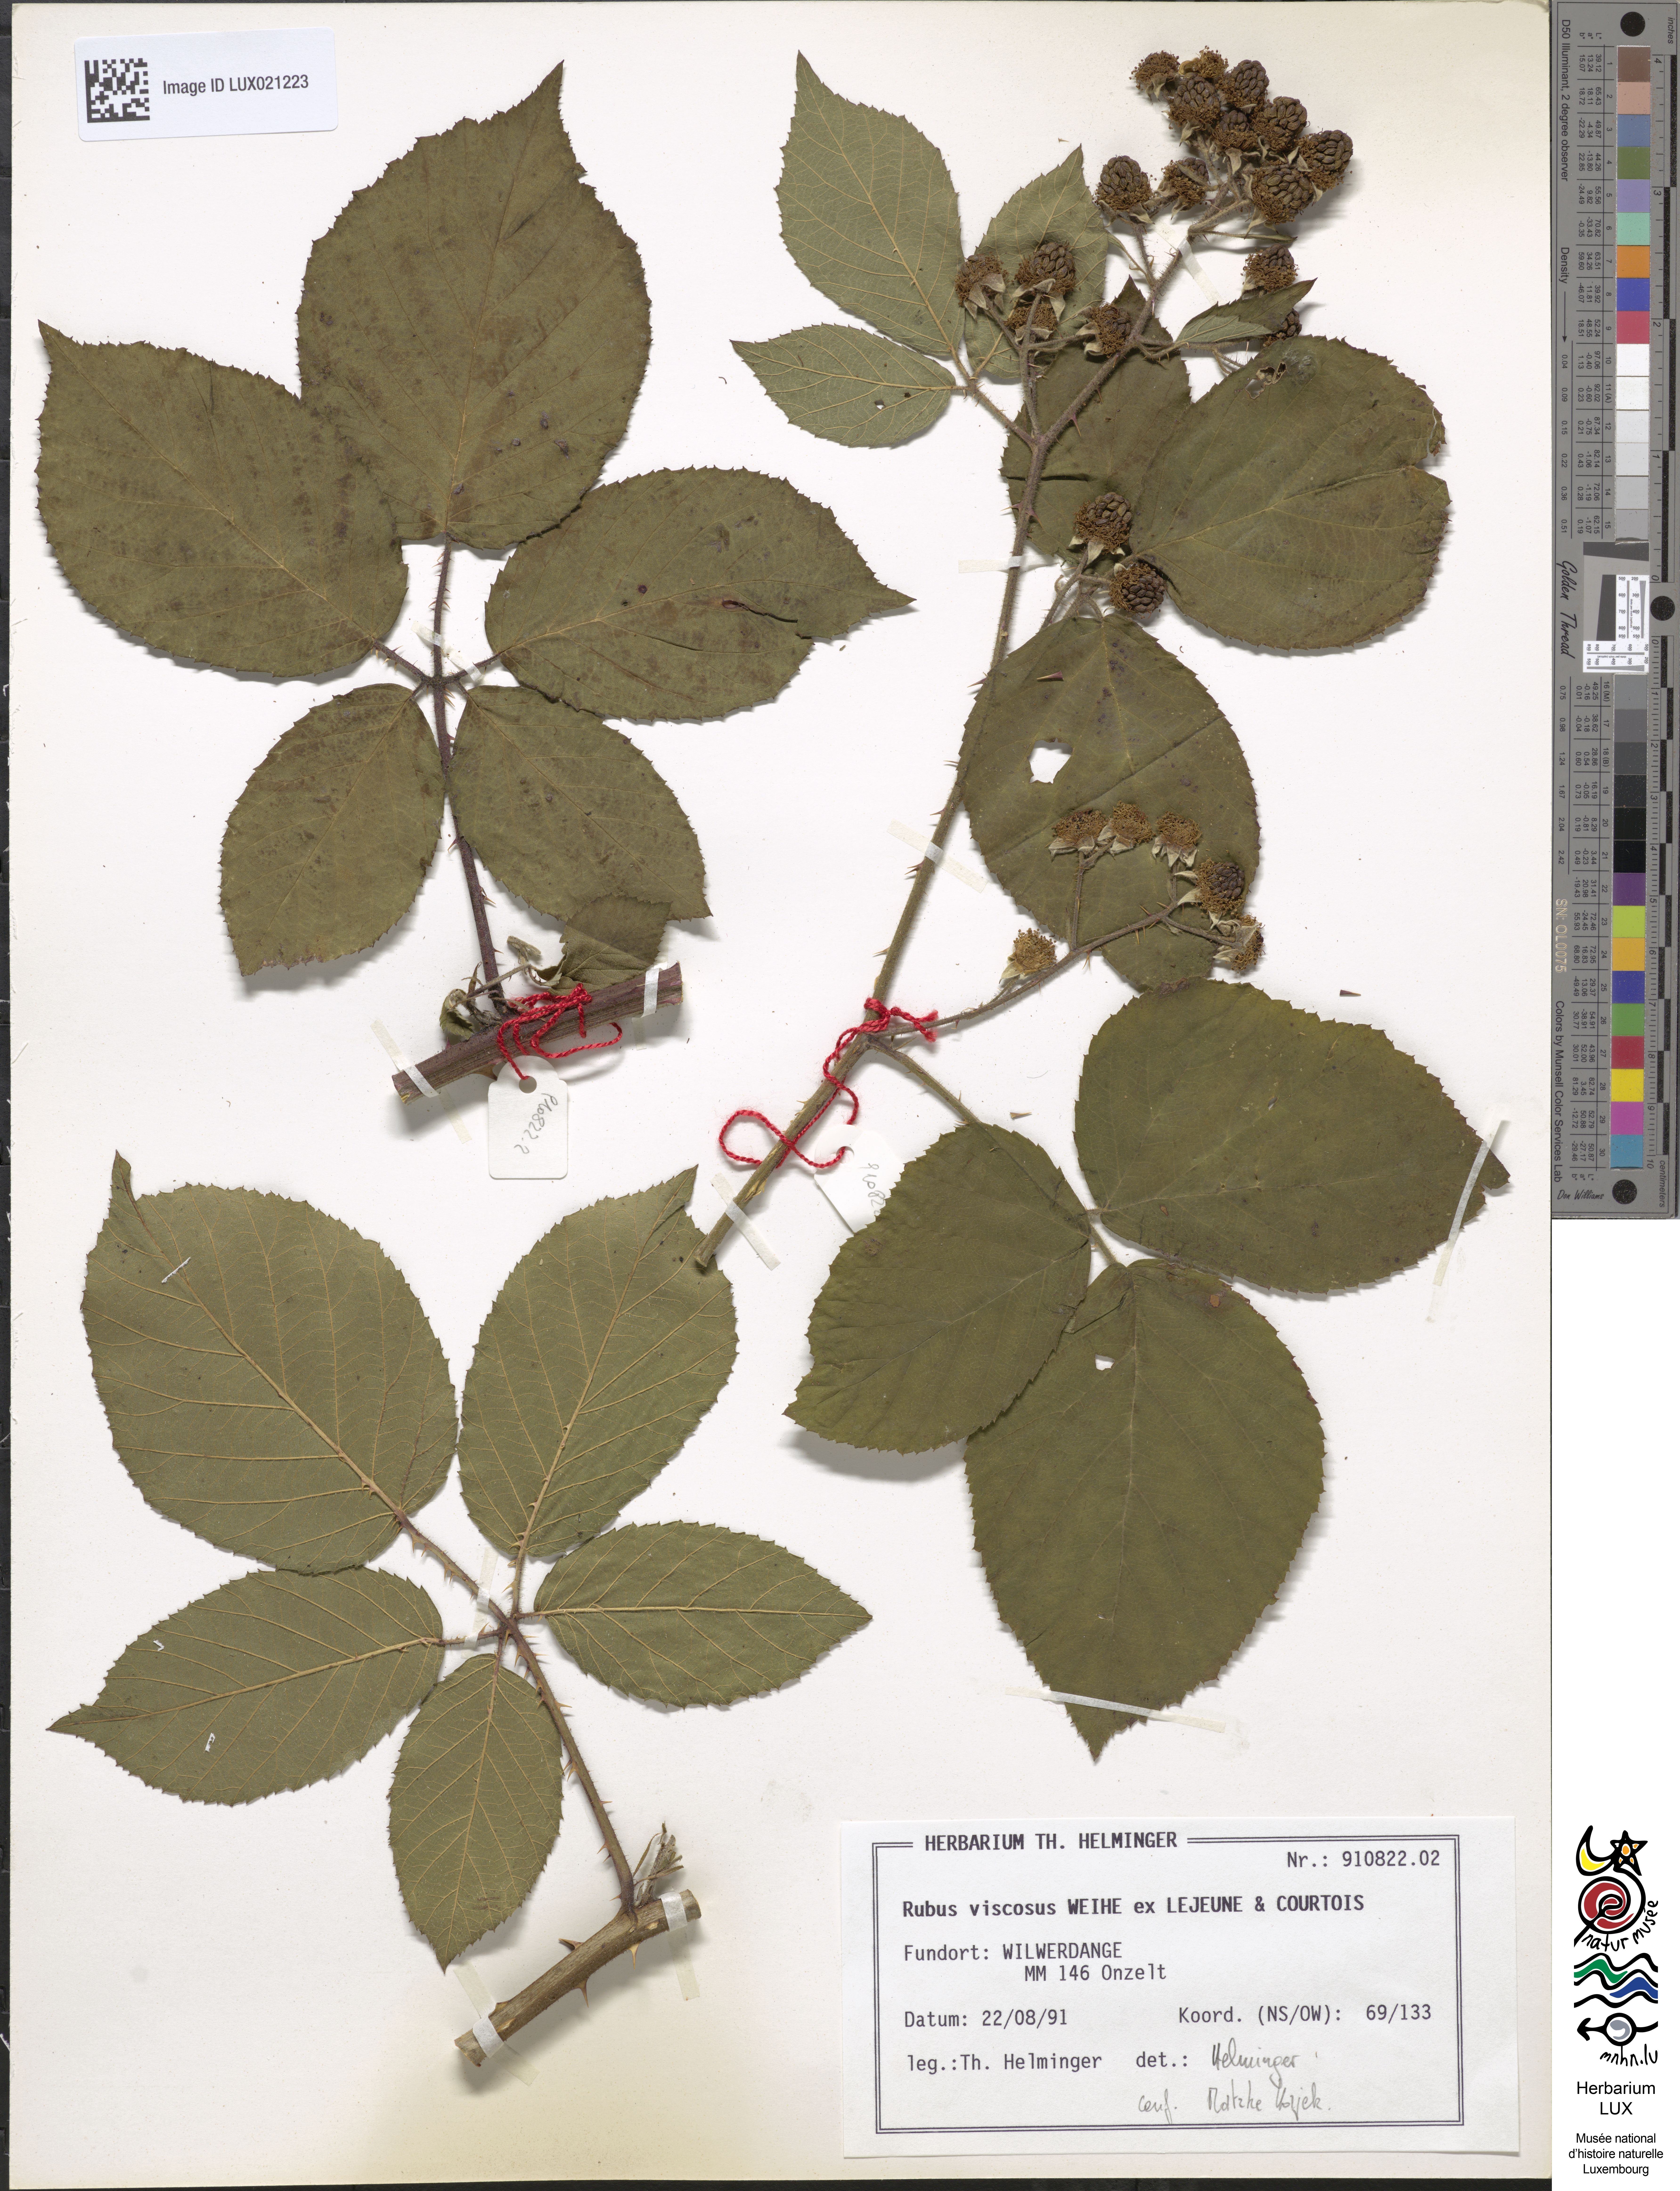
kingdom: Plantae
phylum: Tracheophyta
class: Magnoliopsida
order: Rosales
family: Rosaceae
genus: Rubus
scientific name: Rubus viscosus
